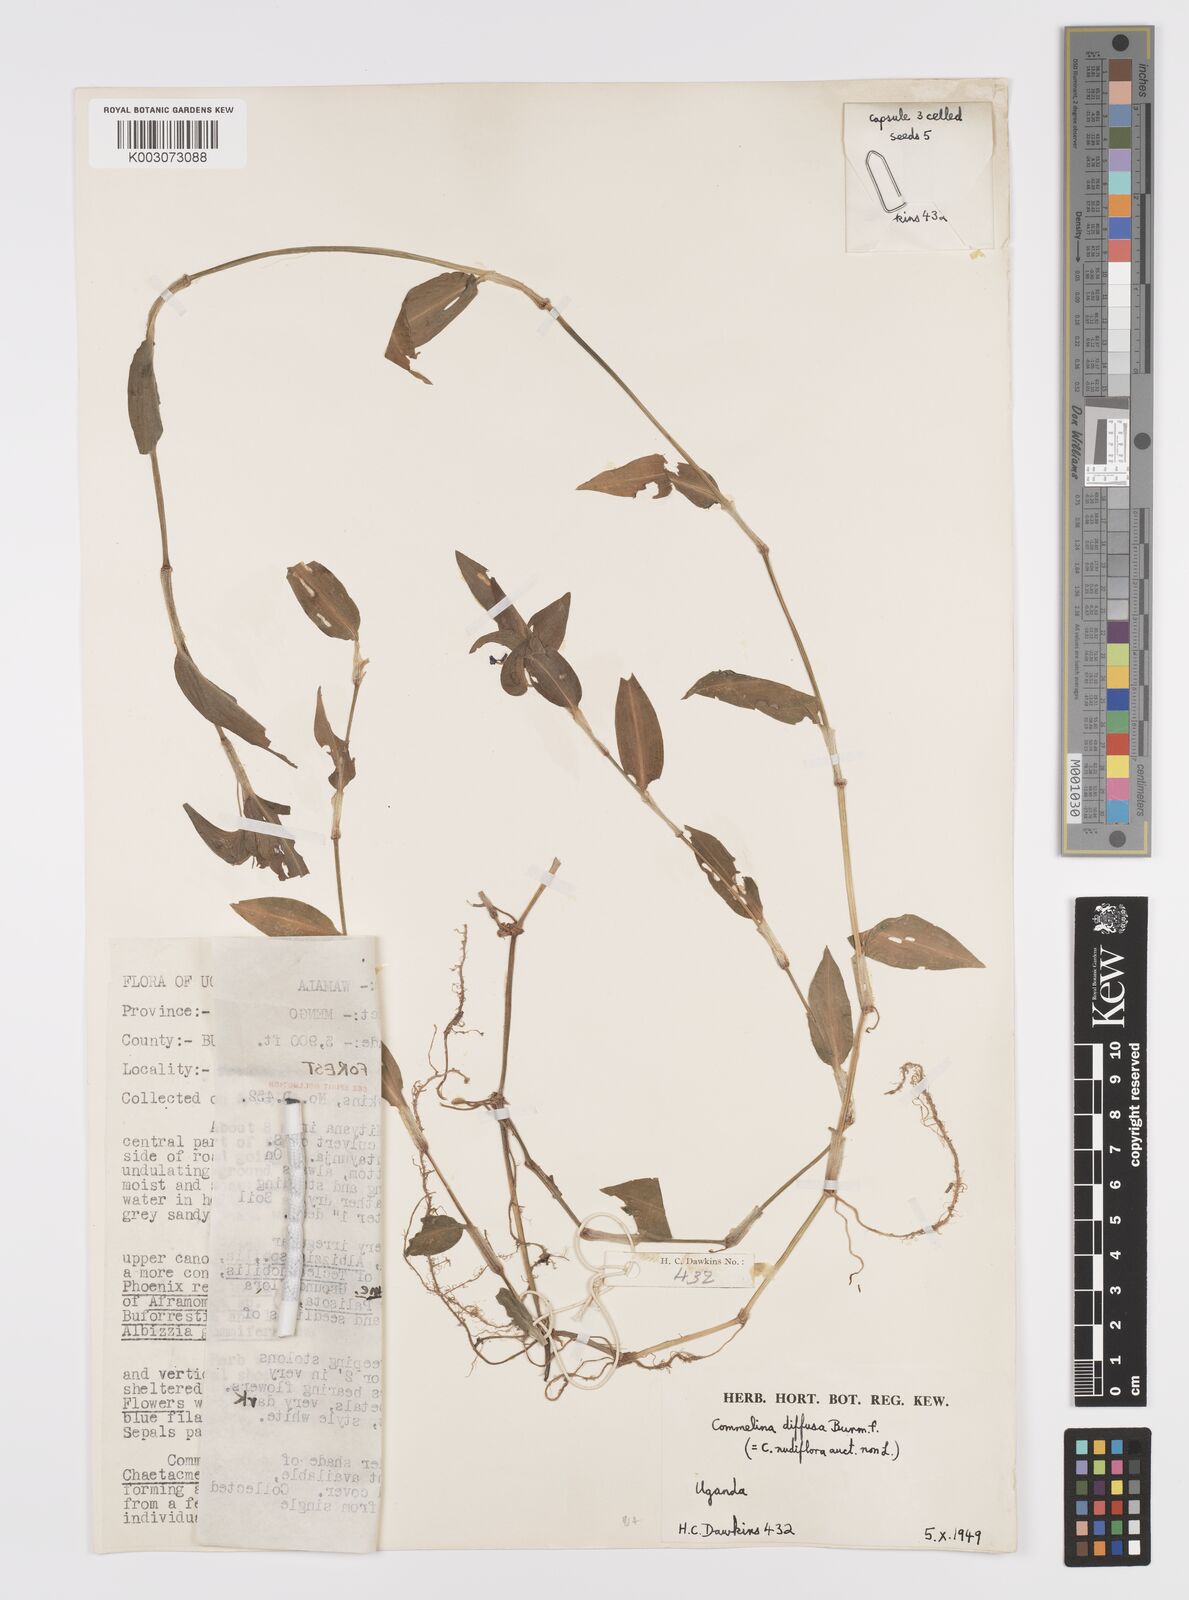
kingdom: Plantae
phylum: Tracheophyta
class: Liliopsida
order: Commelinales
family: Commelinaceae
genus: Commelina
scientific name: Commelina diffusa
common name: Climbing dayflower
